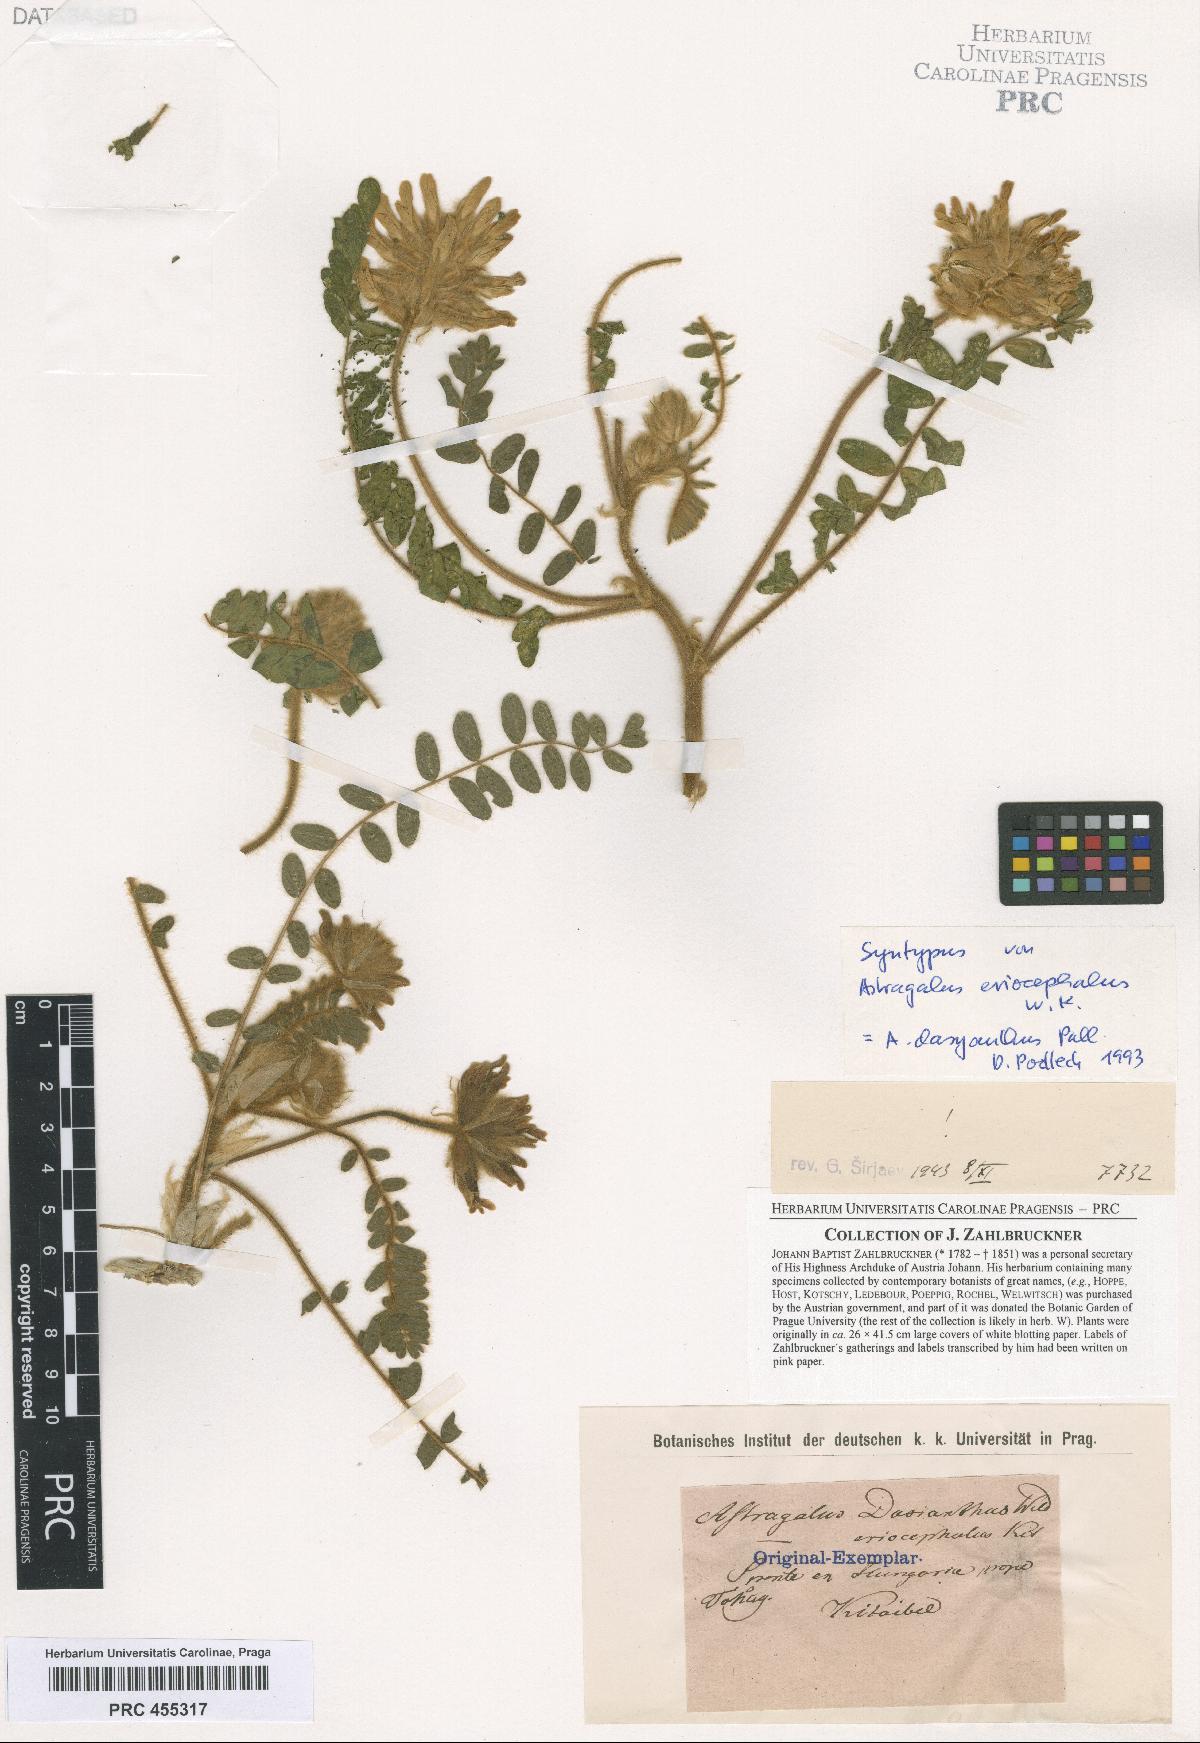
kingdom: Plantae
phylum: Tracheophyta
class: Magnoliopsida
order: Fabales
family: Fabaceae
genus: Astragalus
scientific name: Astragalus dasyanthus
